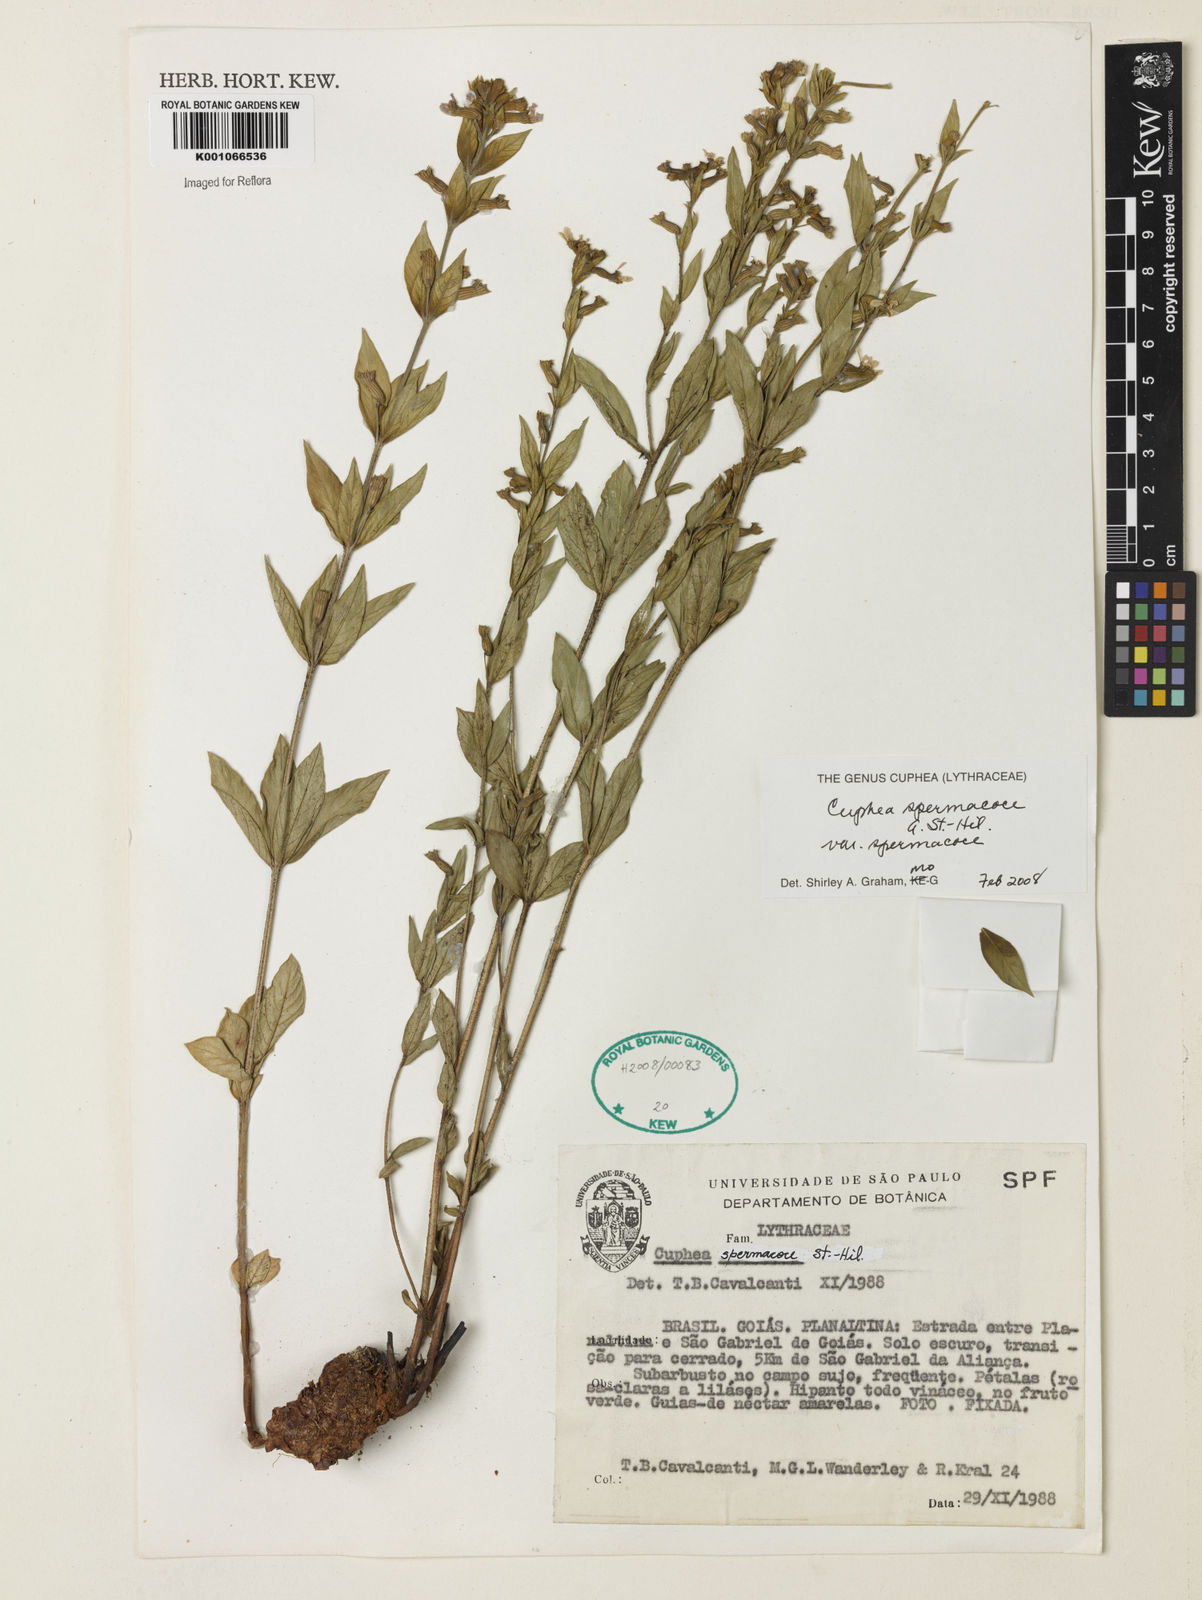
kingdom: Plantae
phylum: Tracheophyta
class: Magnoliopsida
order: Myrtales
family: Lythraceae
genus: Cuphea
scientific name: Cuphea spermacoce
